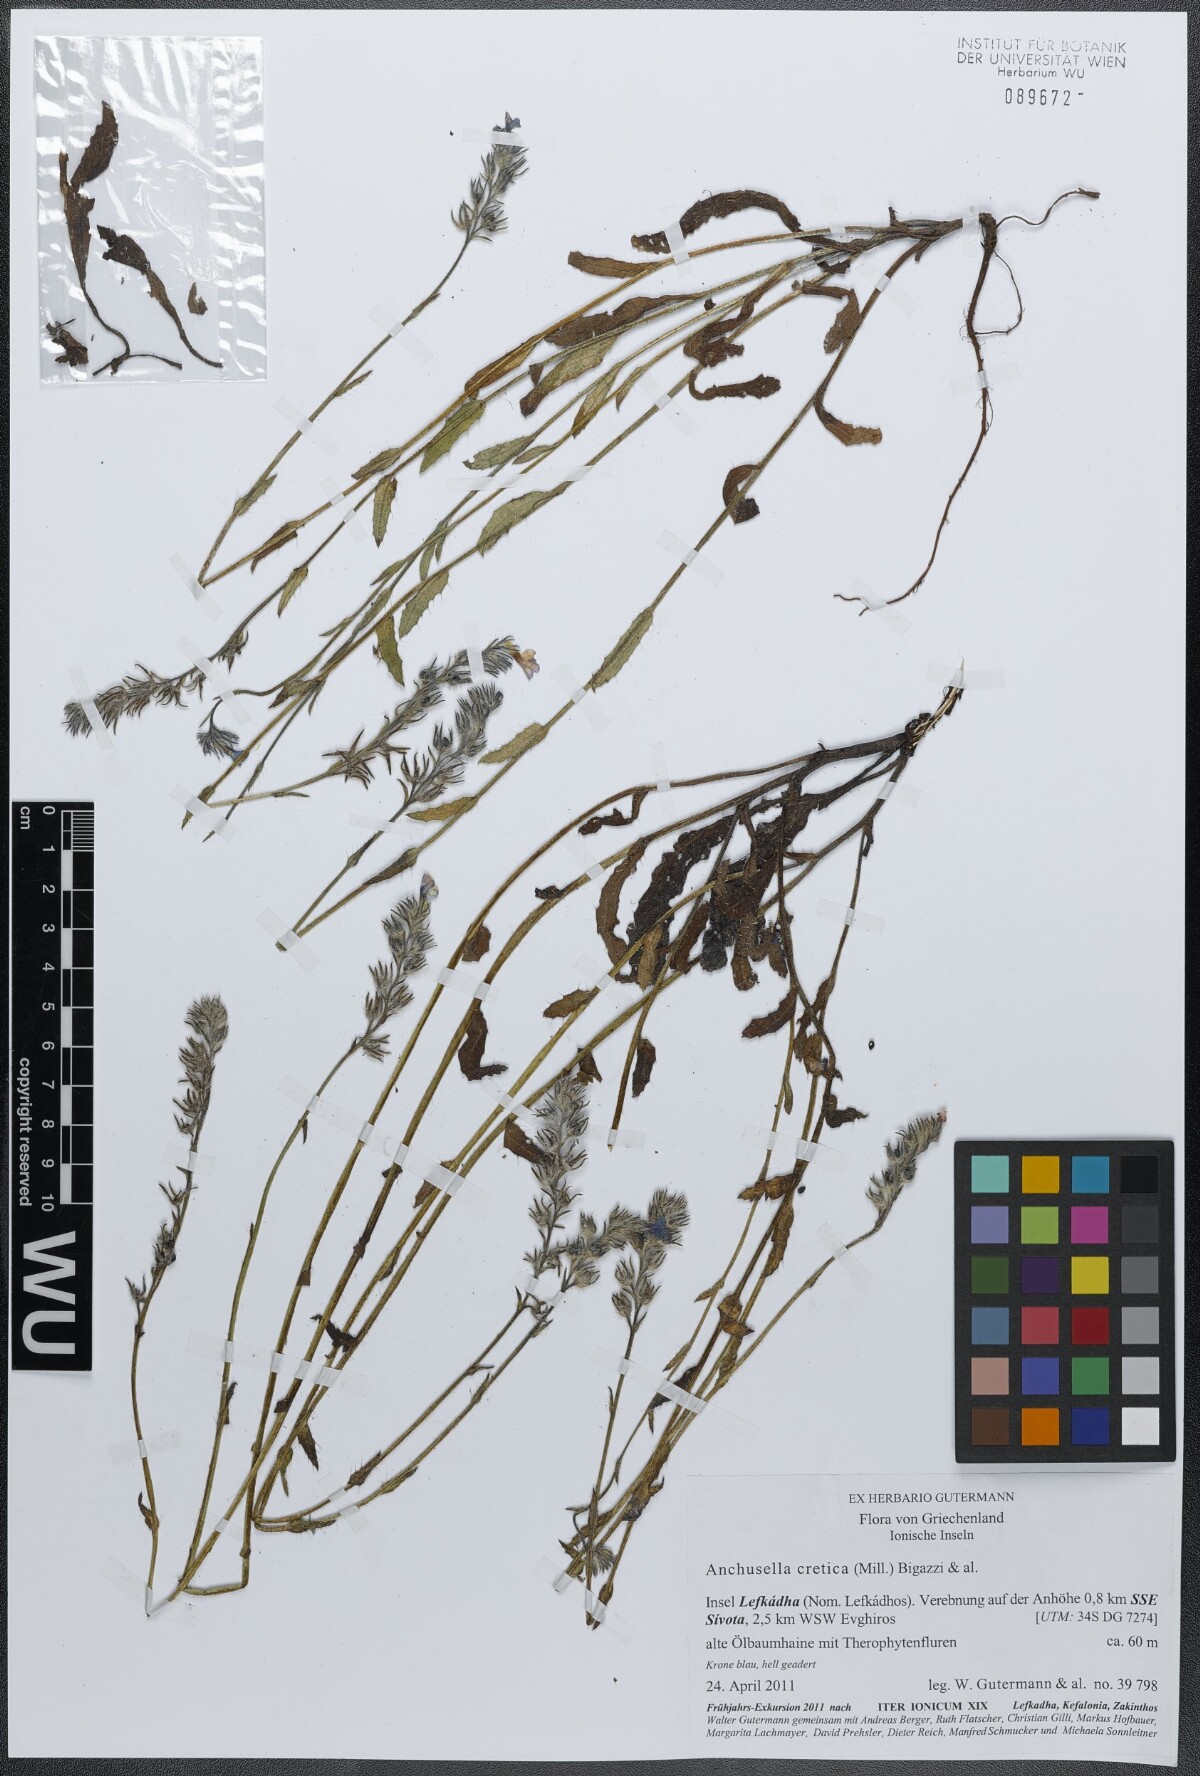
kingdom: Plantae
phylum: Tracheophyta
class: Magnoliopsida
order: Boraginales
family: Boraginaceae
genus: Anchusella
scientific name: Anchusella cretica
